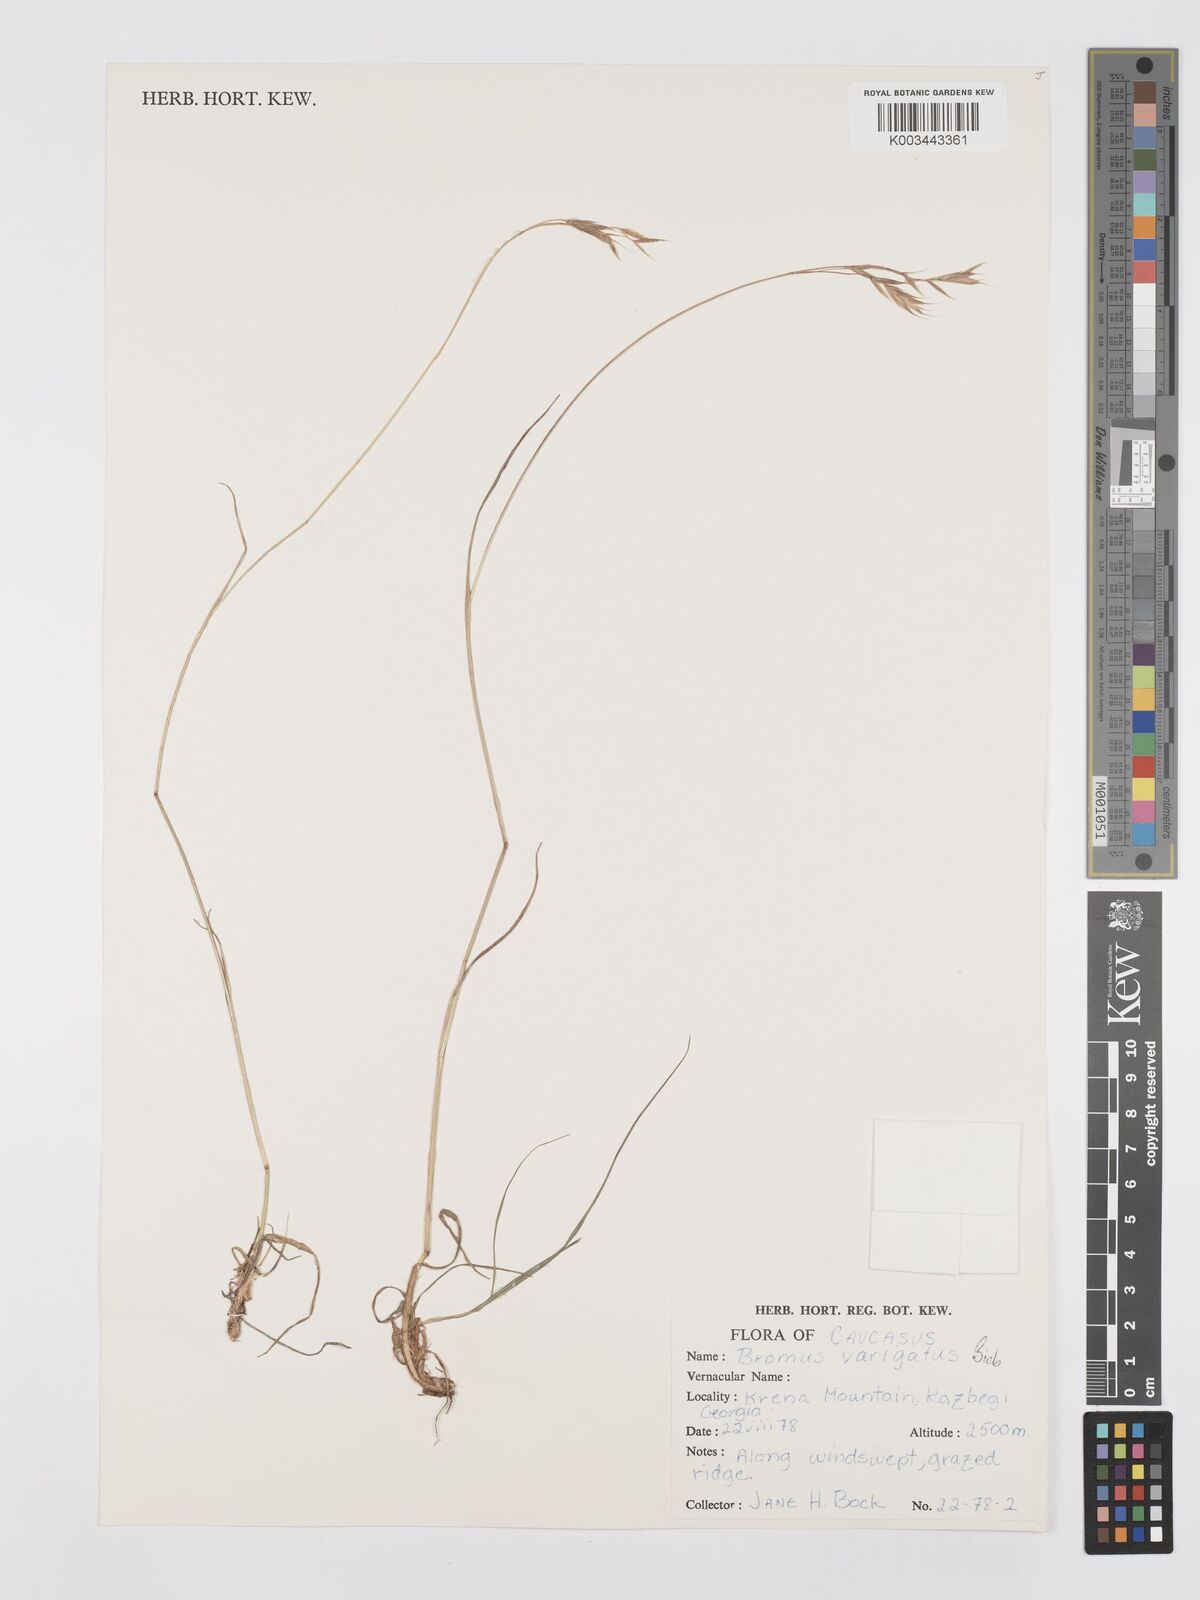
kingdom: Plantae
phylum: Tracheophyta
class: Liliopsida
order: Poales
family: Poaceae
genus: Bromus
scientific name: Bromus variegatus
